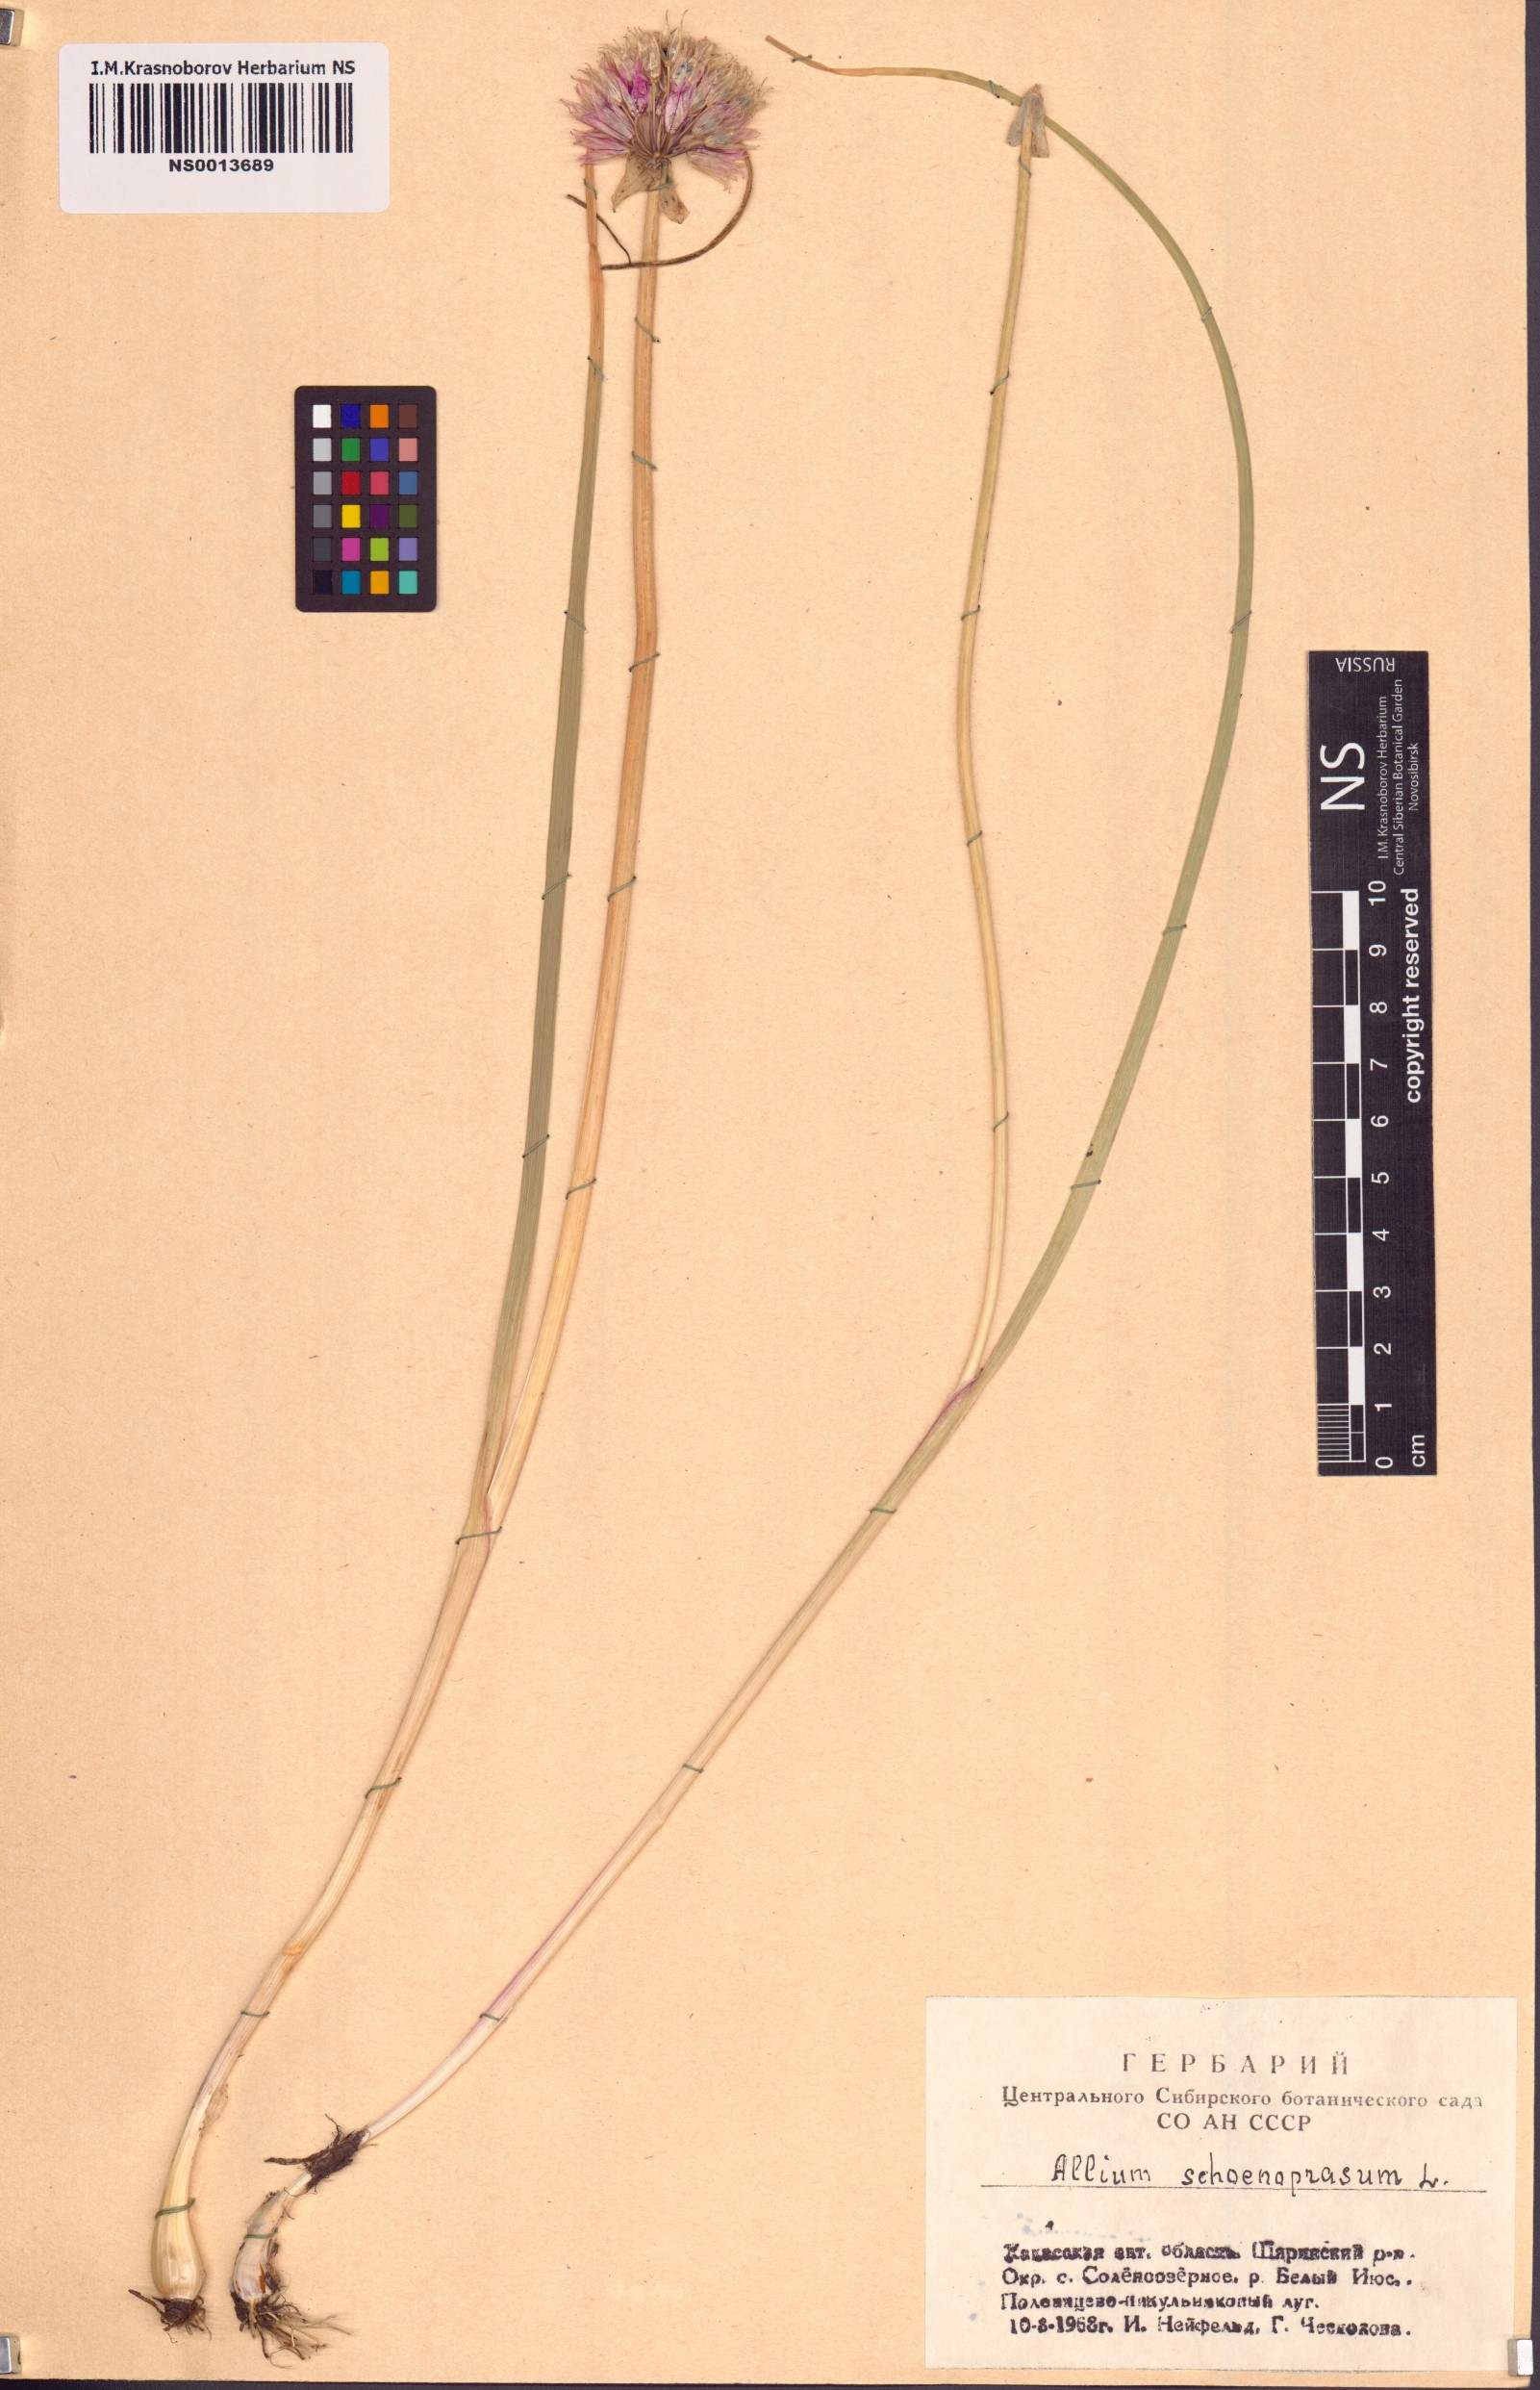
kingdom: Plantae
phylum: Tracheophyta
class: Liliopsida
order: Asparagales
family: Amaryllidaceae
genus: Allium
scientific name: Allium schoenoprasum
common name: Chives
